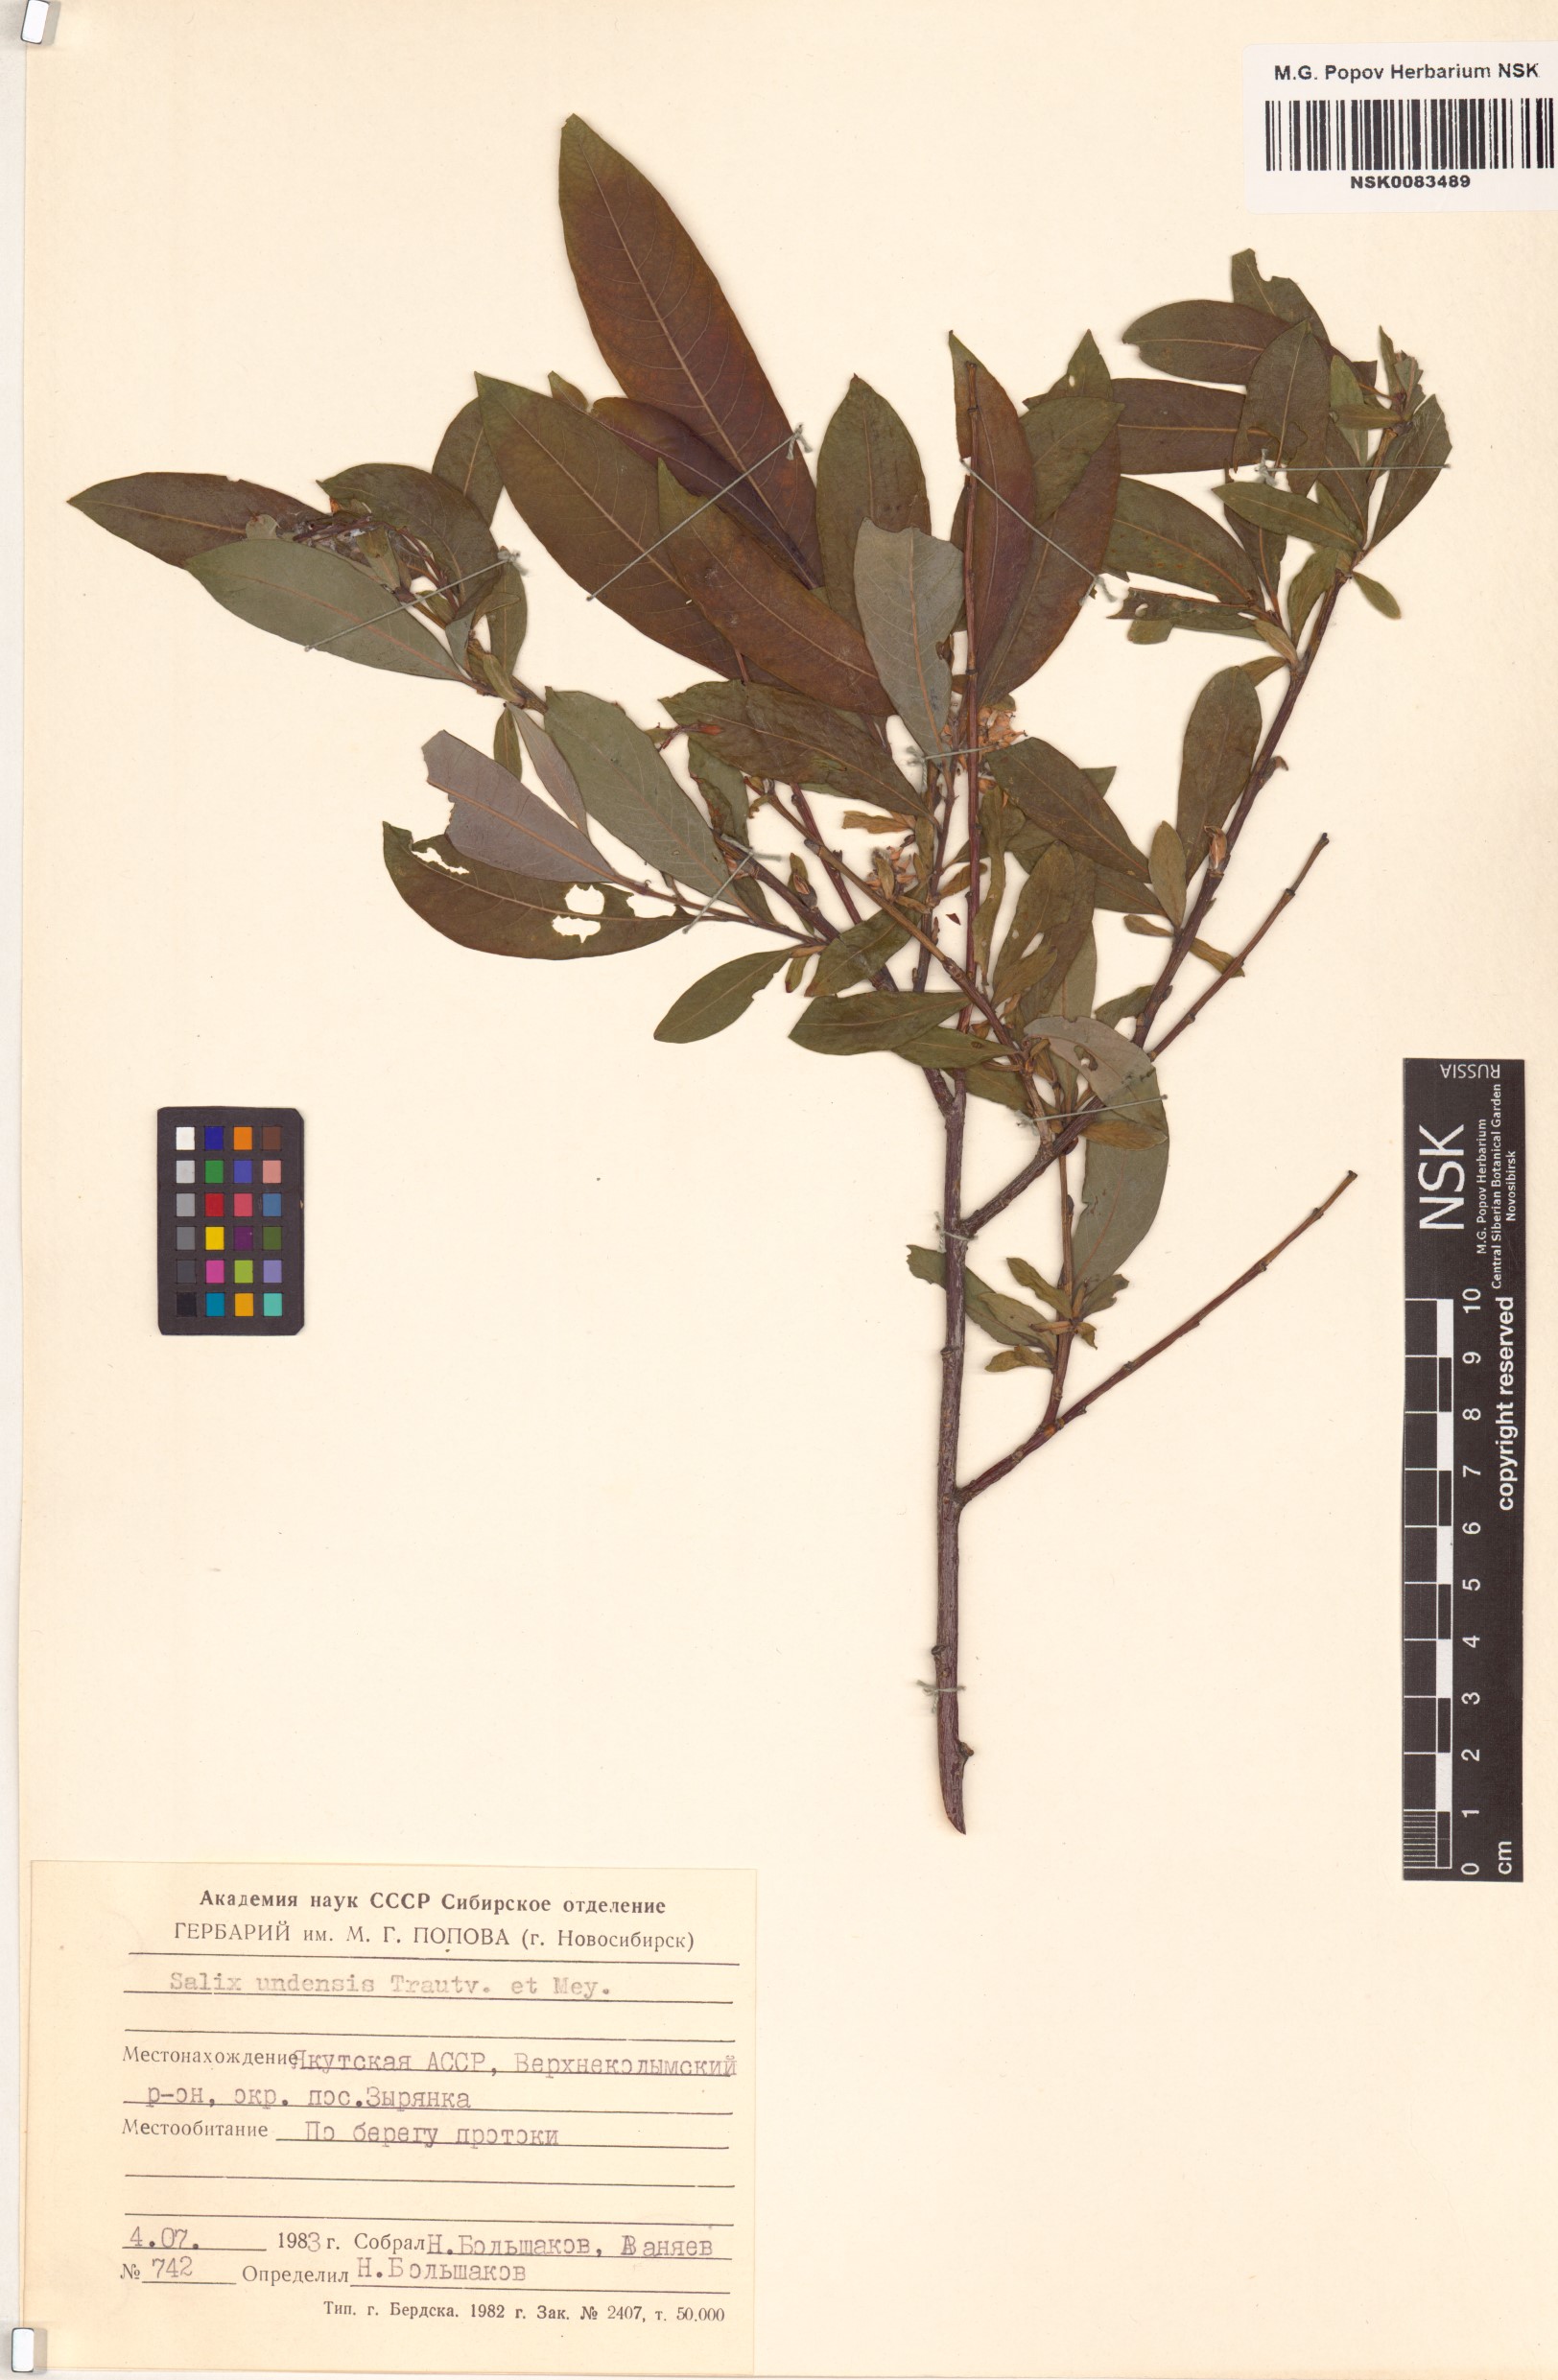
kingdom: Plantae
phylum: Tracheophyta
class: Magnoliopsida
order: Malpighiales
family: Salicaceae
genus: Salix
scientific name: Salix udensis
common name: Sachalin willow
